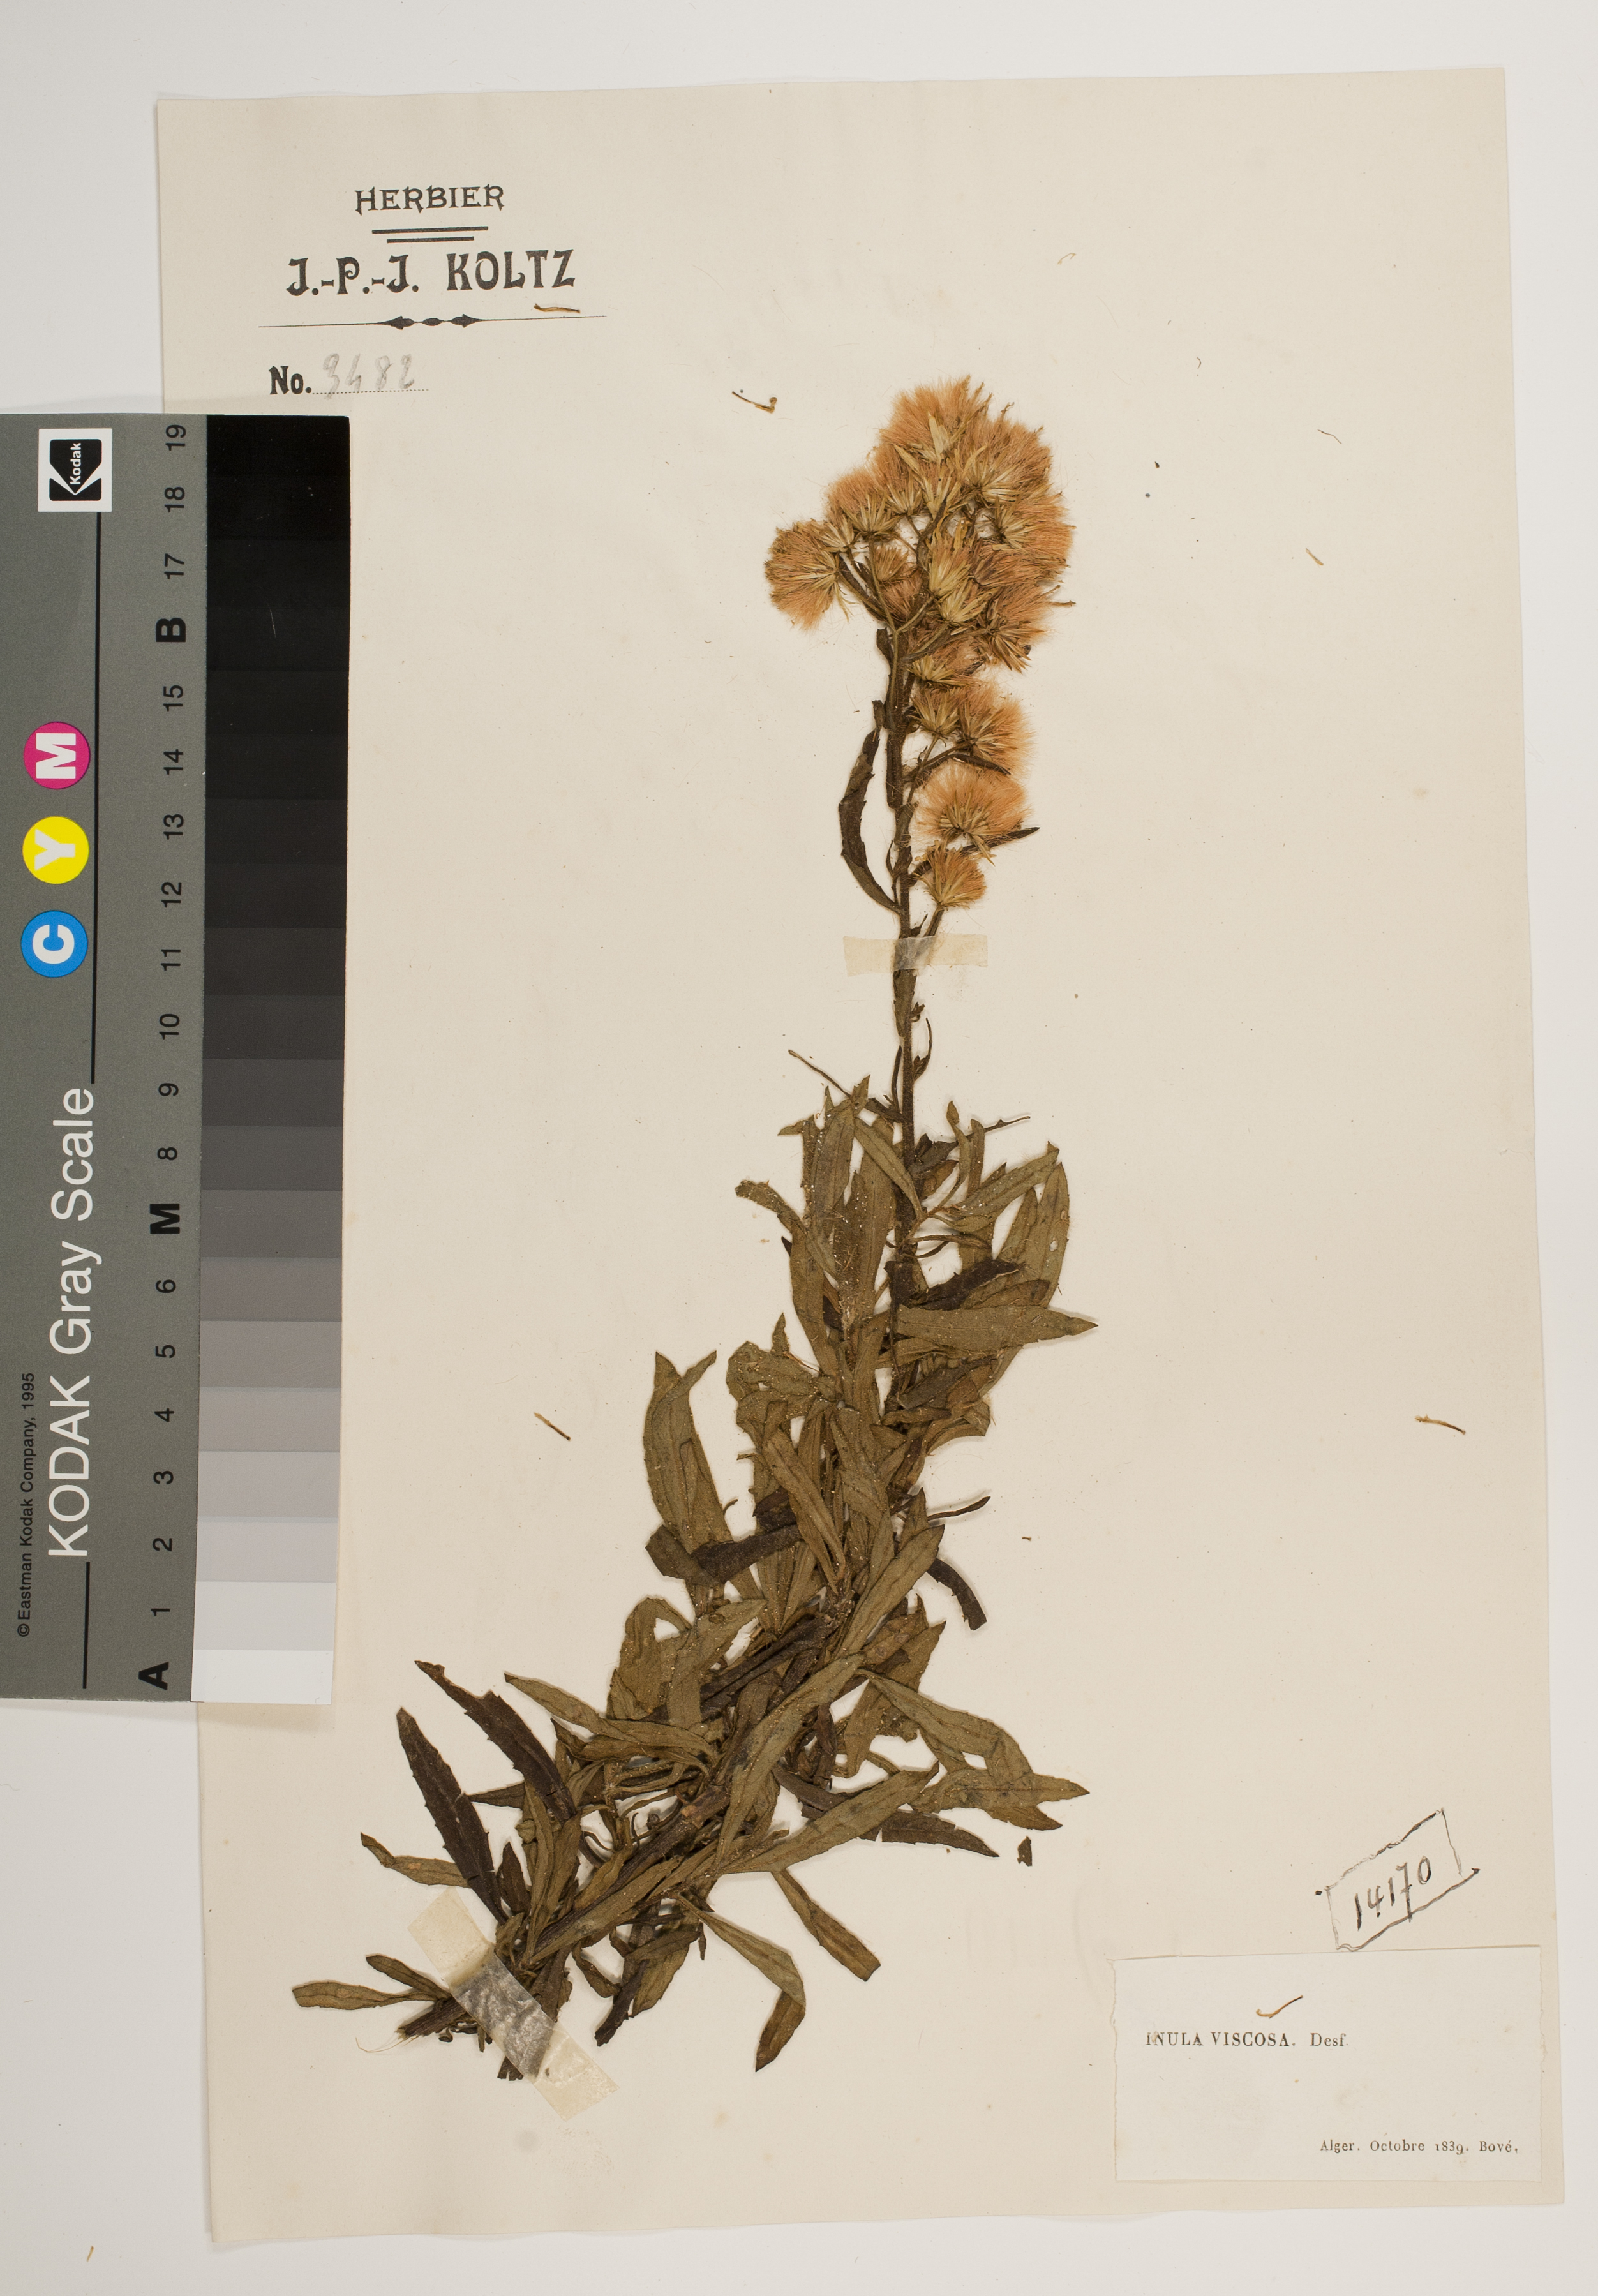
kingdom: Plantae
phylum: Tracheophyta
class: Magnoliopsida
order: Asterales
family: Asteraceae
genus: Dittrichia
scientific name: Dittrichia viscosa
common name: Woody fleabane
